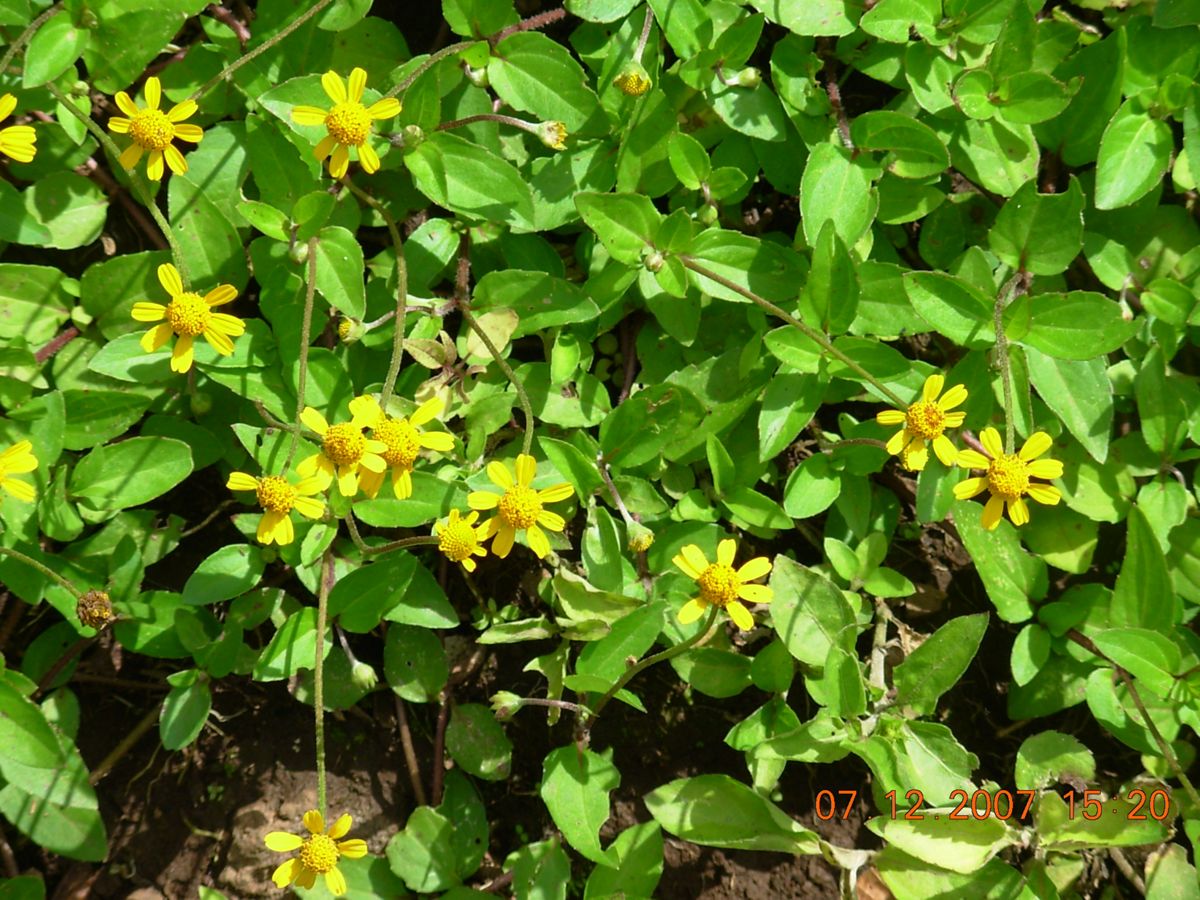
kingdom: Plantae
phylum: Tracheophyta
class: Magnoliopsida
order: Asterales
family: Asteraceae
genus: Heliopsis
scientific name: Heliopsis buphthalmoides
